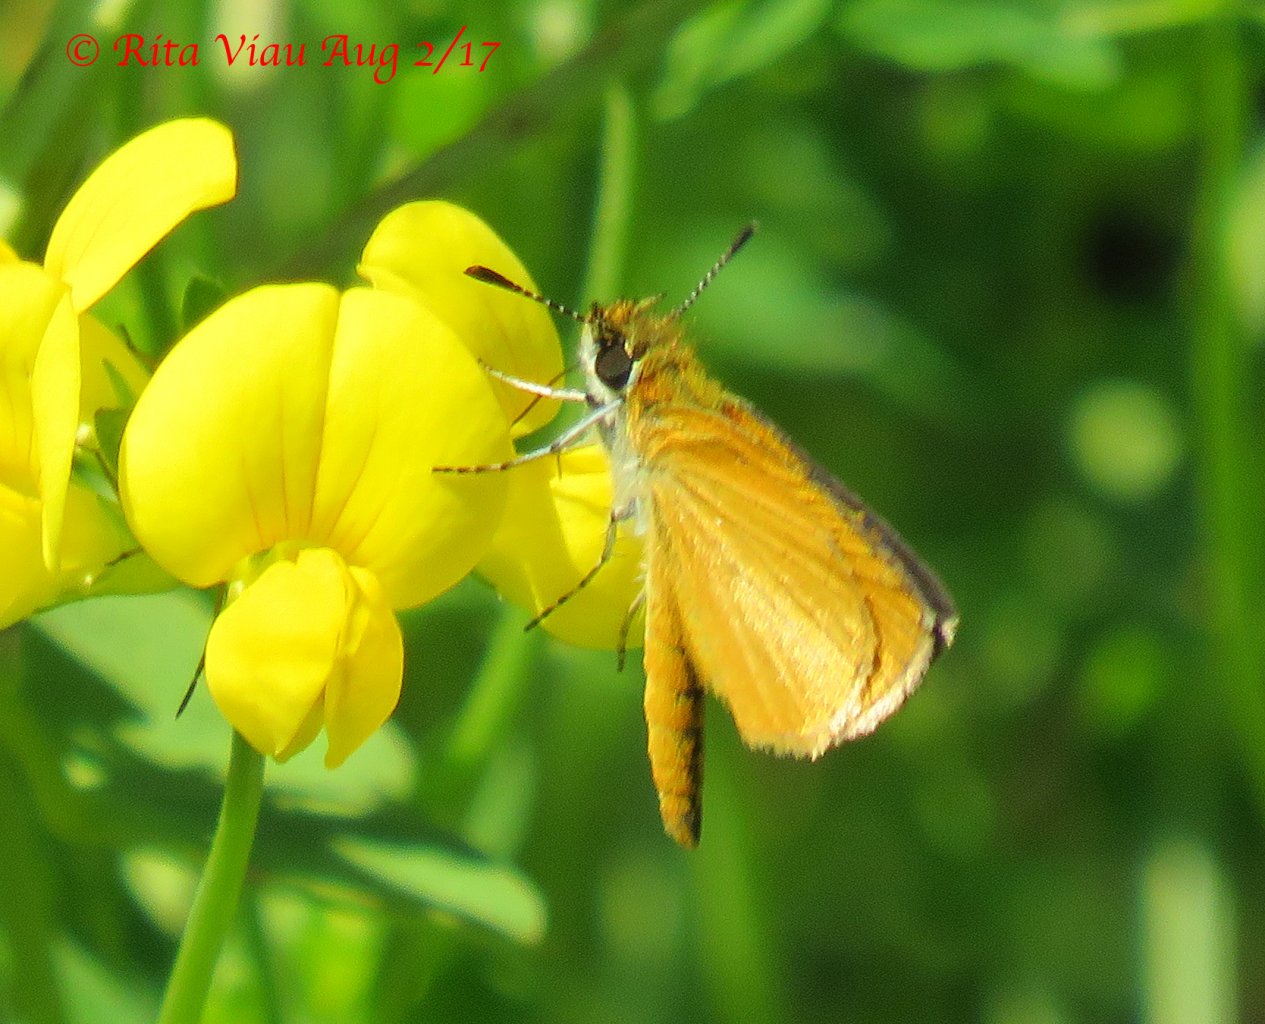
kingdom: Animalia
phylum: Arthropoda
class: Insecta
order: Lepidoptera
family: Hesperiidae
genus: Ancyloxypha
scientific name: Ancyloxypha numitor
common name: Least Skipper
